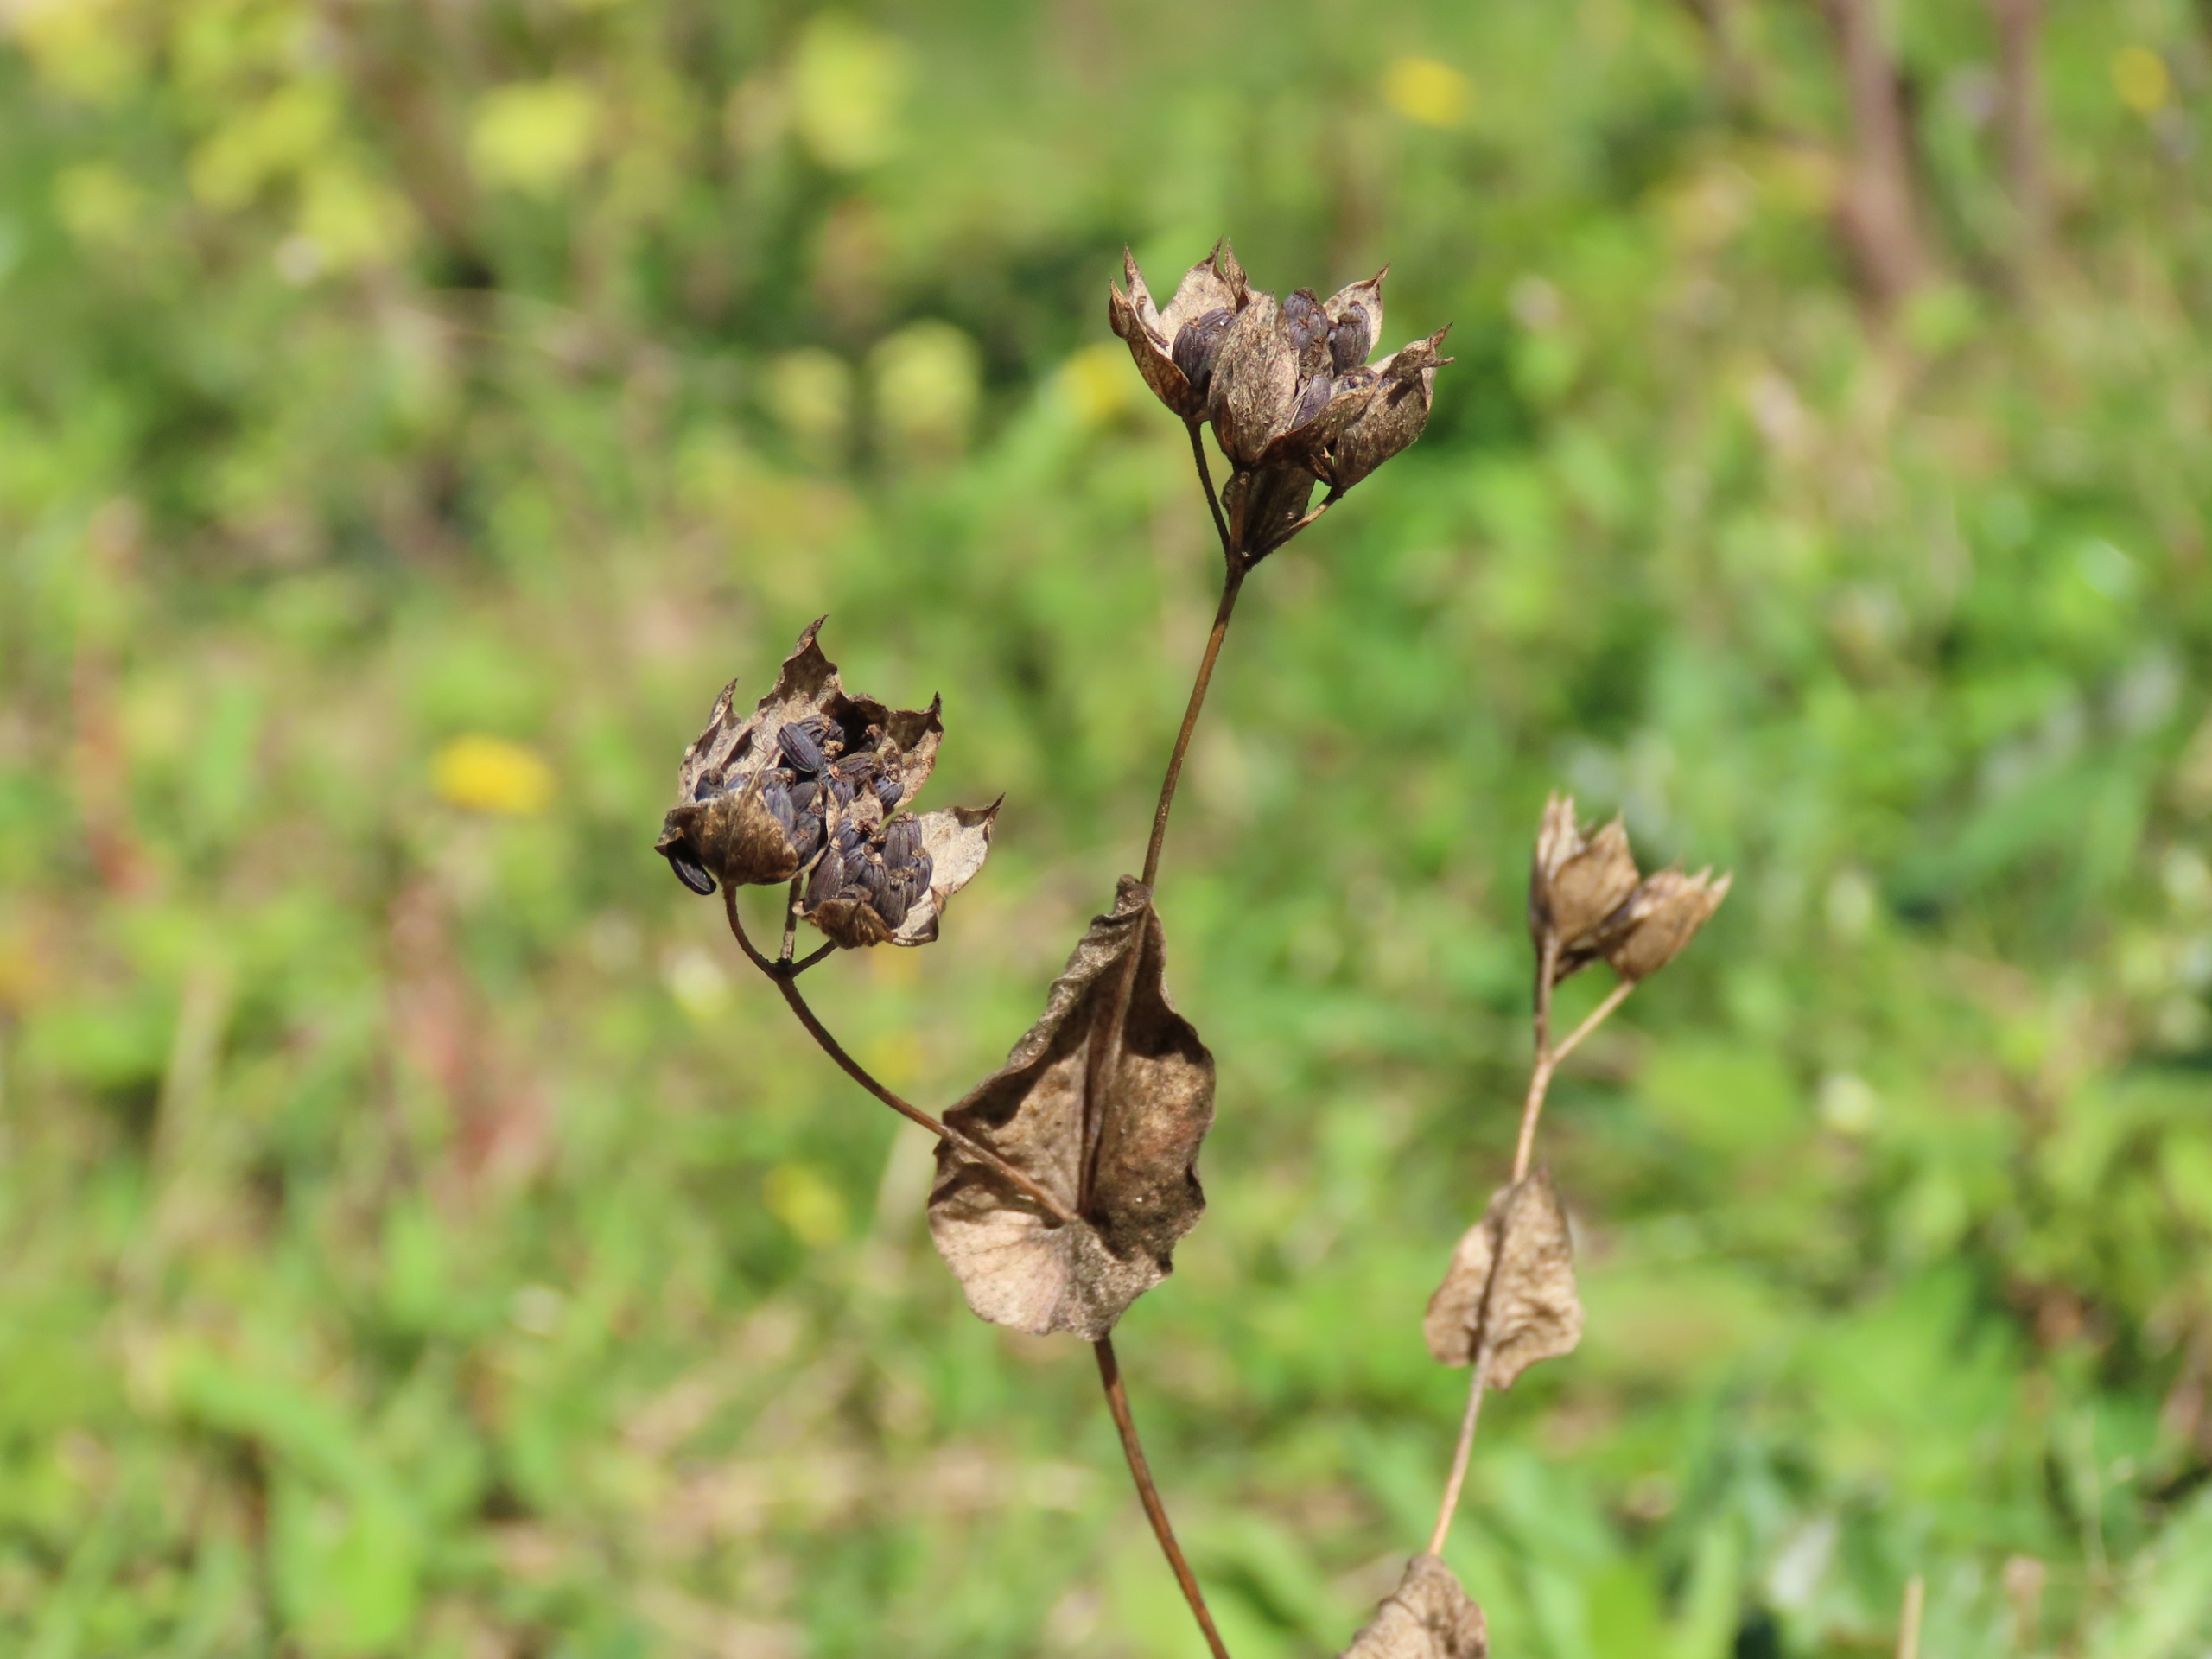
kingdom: Plantae
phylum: Tracheophyta
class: Magnoliopsida
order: Apiales
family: Apiaceae
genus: Bupleurum
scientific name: Bupleurum rotundifolium
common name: Rundbladet hareøre
